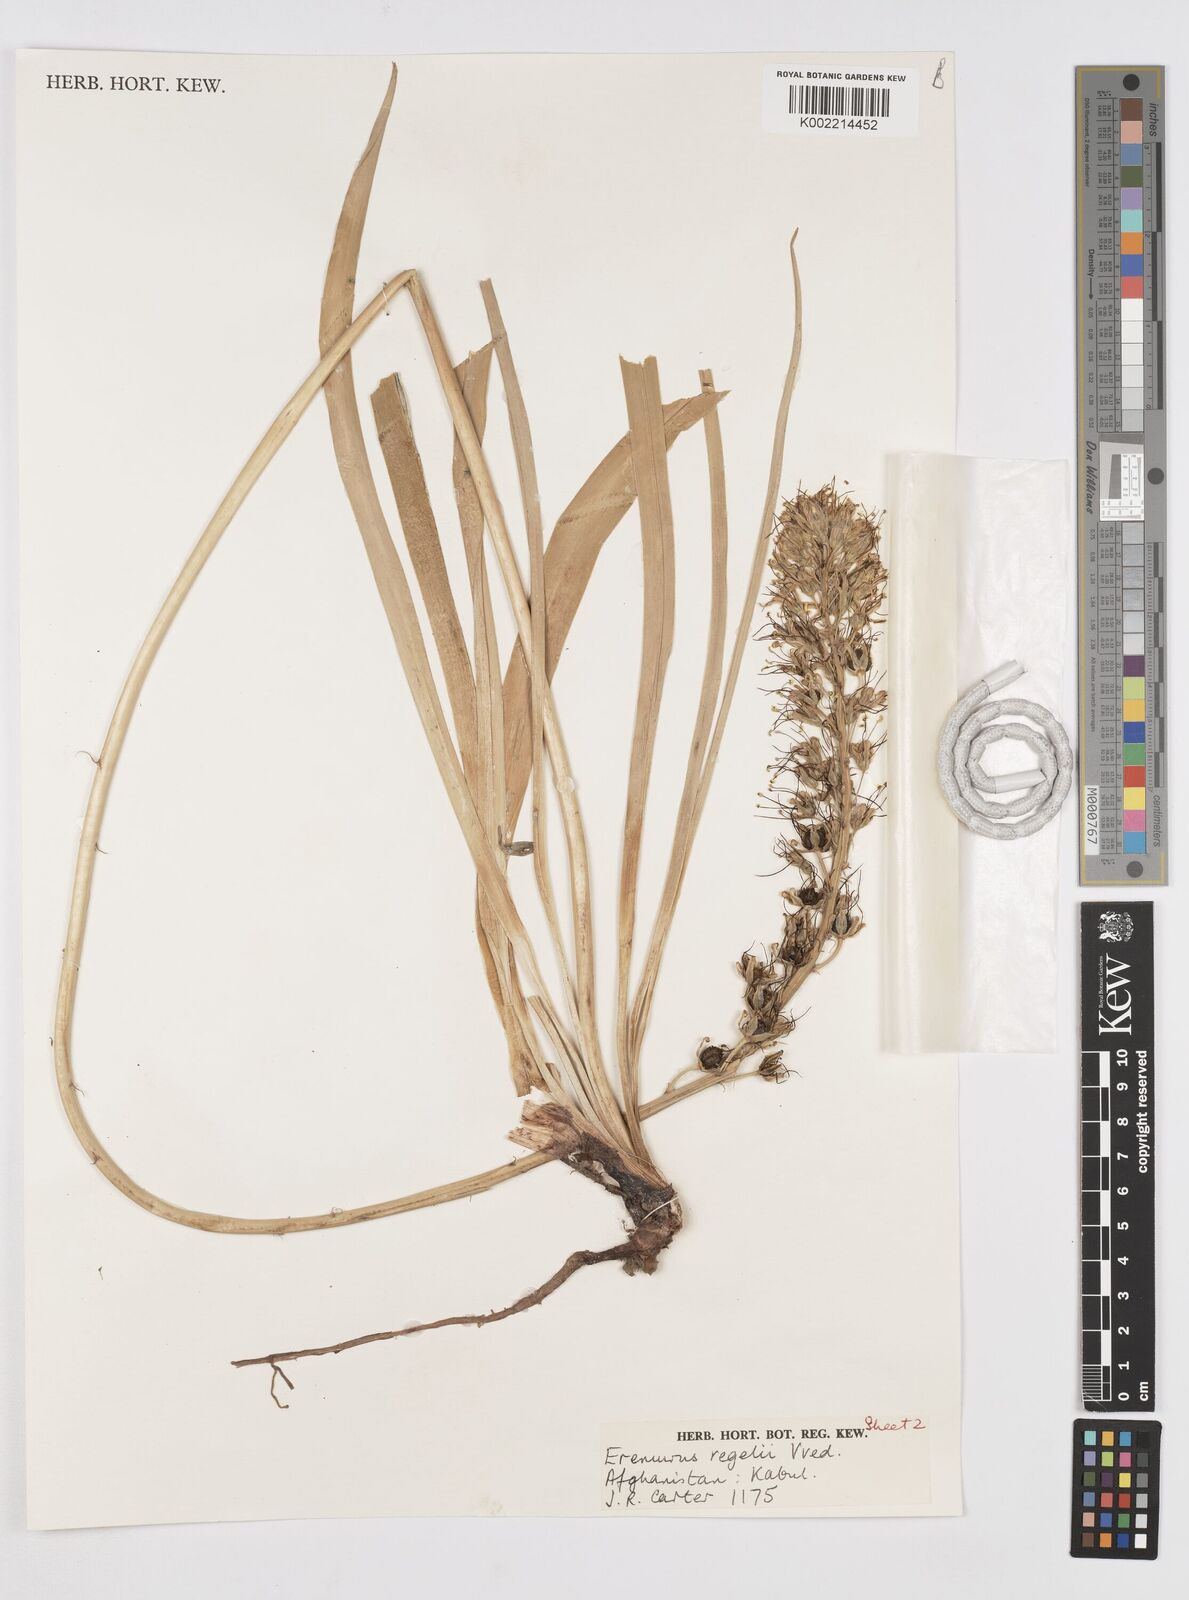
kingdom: Plantae
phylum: Tracheophyta
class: Liliopsida
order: Asparagales
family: Asphodelaceae
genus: Eremurus
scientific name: Eremurus regelii
